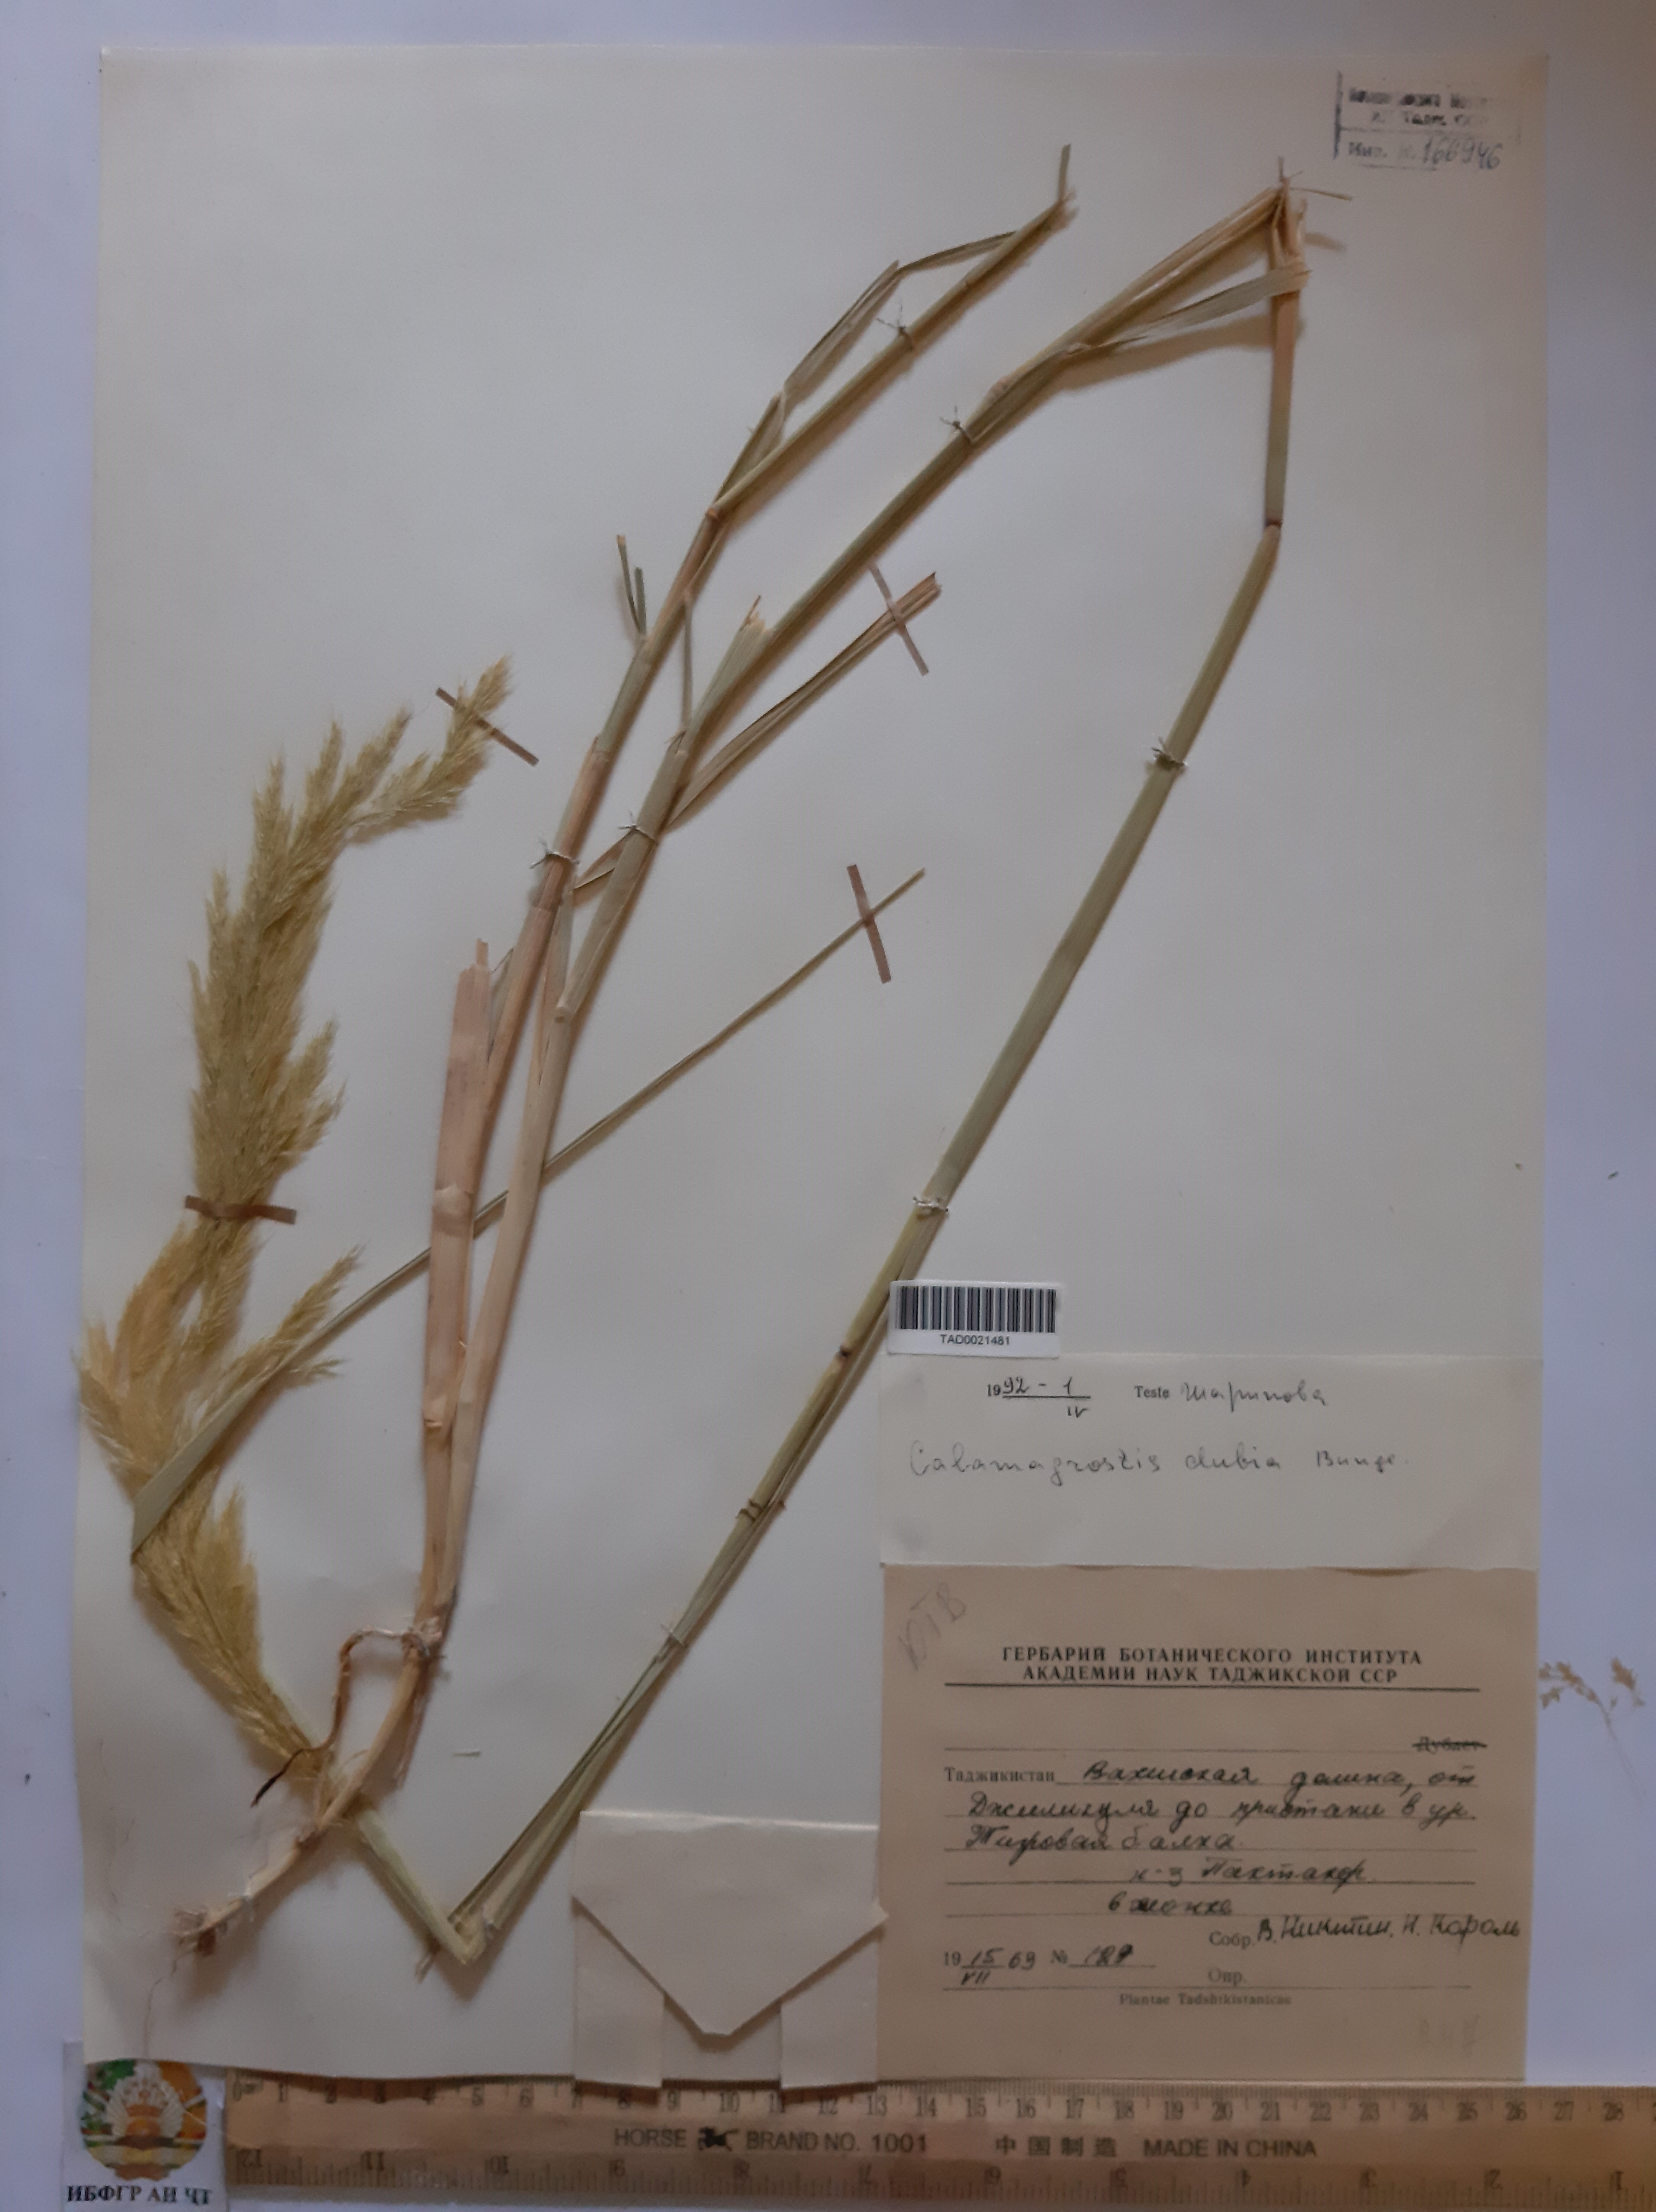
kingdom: Plantae
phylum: Tracheophyta
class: Liliopsida
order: Poales
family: Poaceae
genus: Calamagrostis
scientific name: Calamagrostis pseudophragmites
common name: Coastal small-reed
